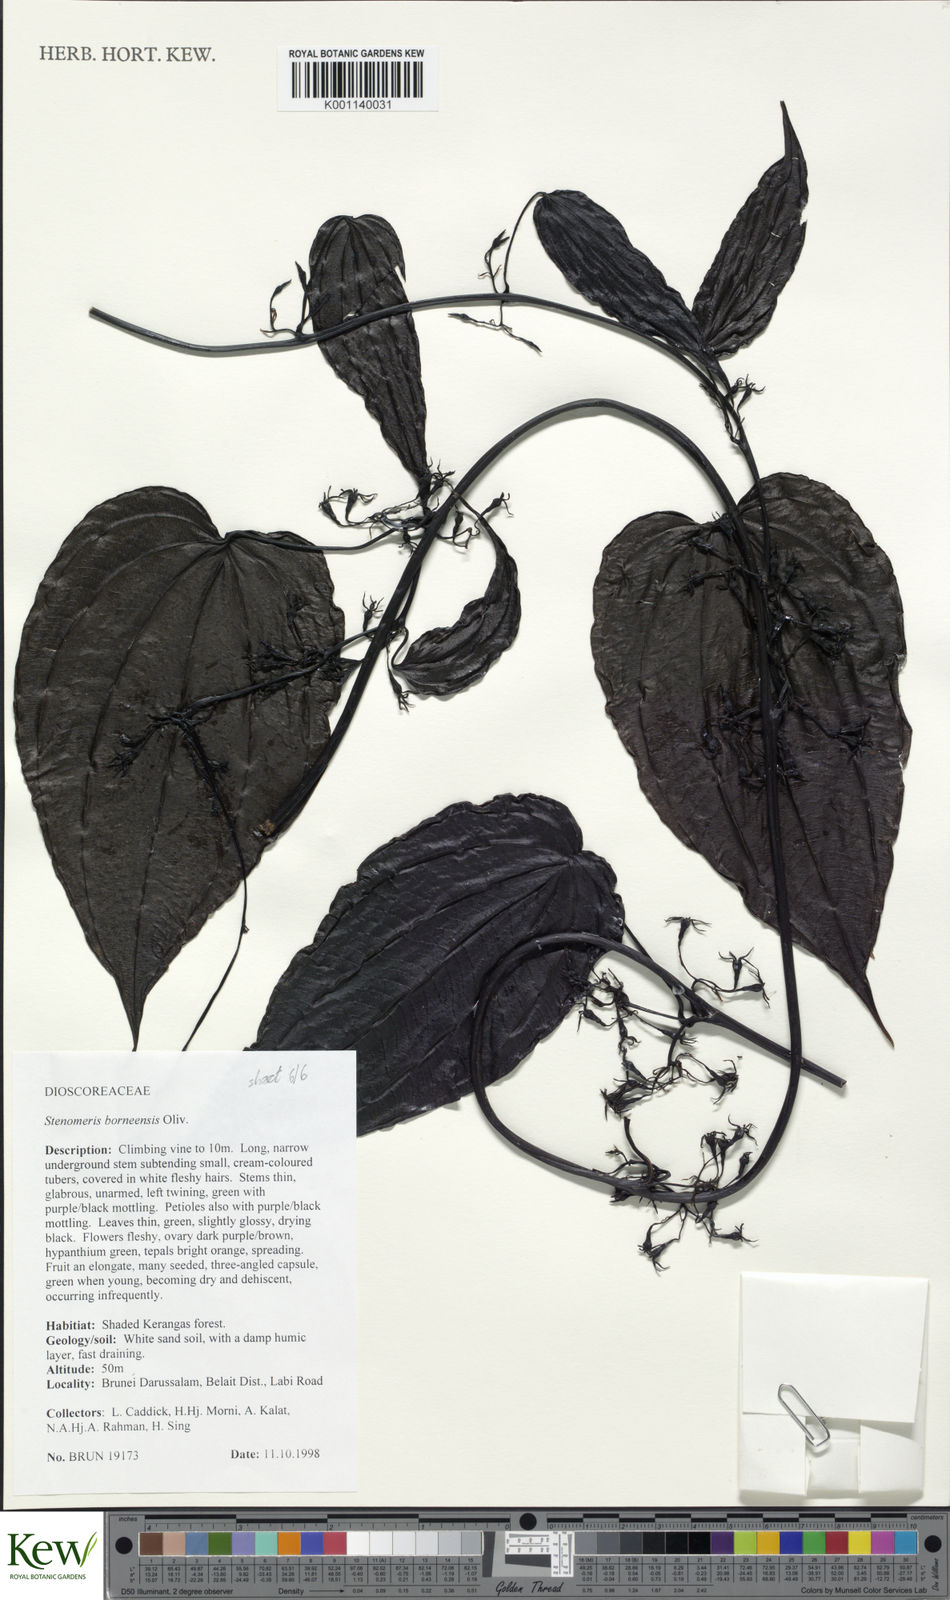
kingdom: Plantae
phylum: Tracheophyta
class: Liliopsida
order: Dioscoreales
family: Dioscoreaceae
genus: Stenomeris
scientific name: Stenomeris borneensis
